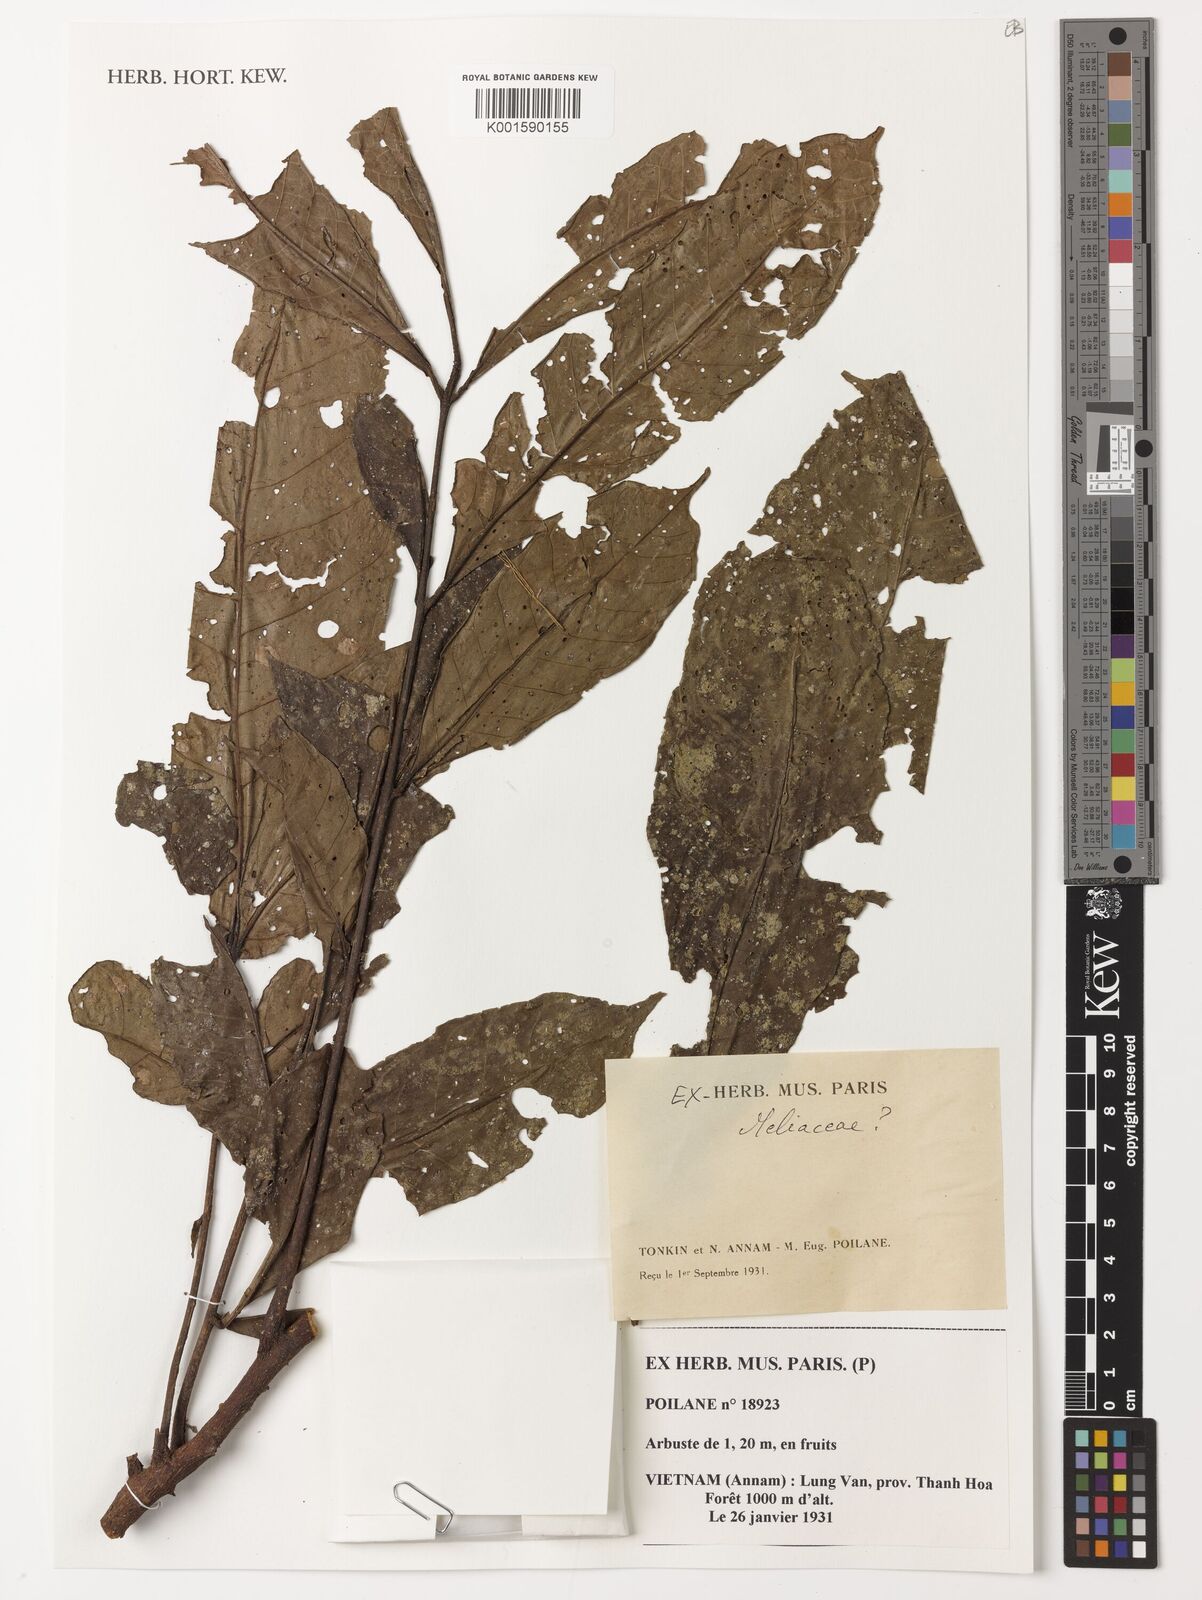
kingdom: Plantae
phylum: Tracheophyta
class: Magnoliopsida
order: Sapindales
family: Meliaceae
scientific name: Meliaceae
